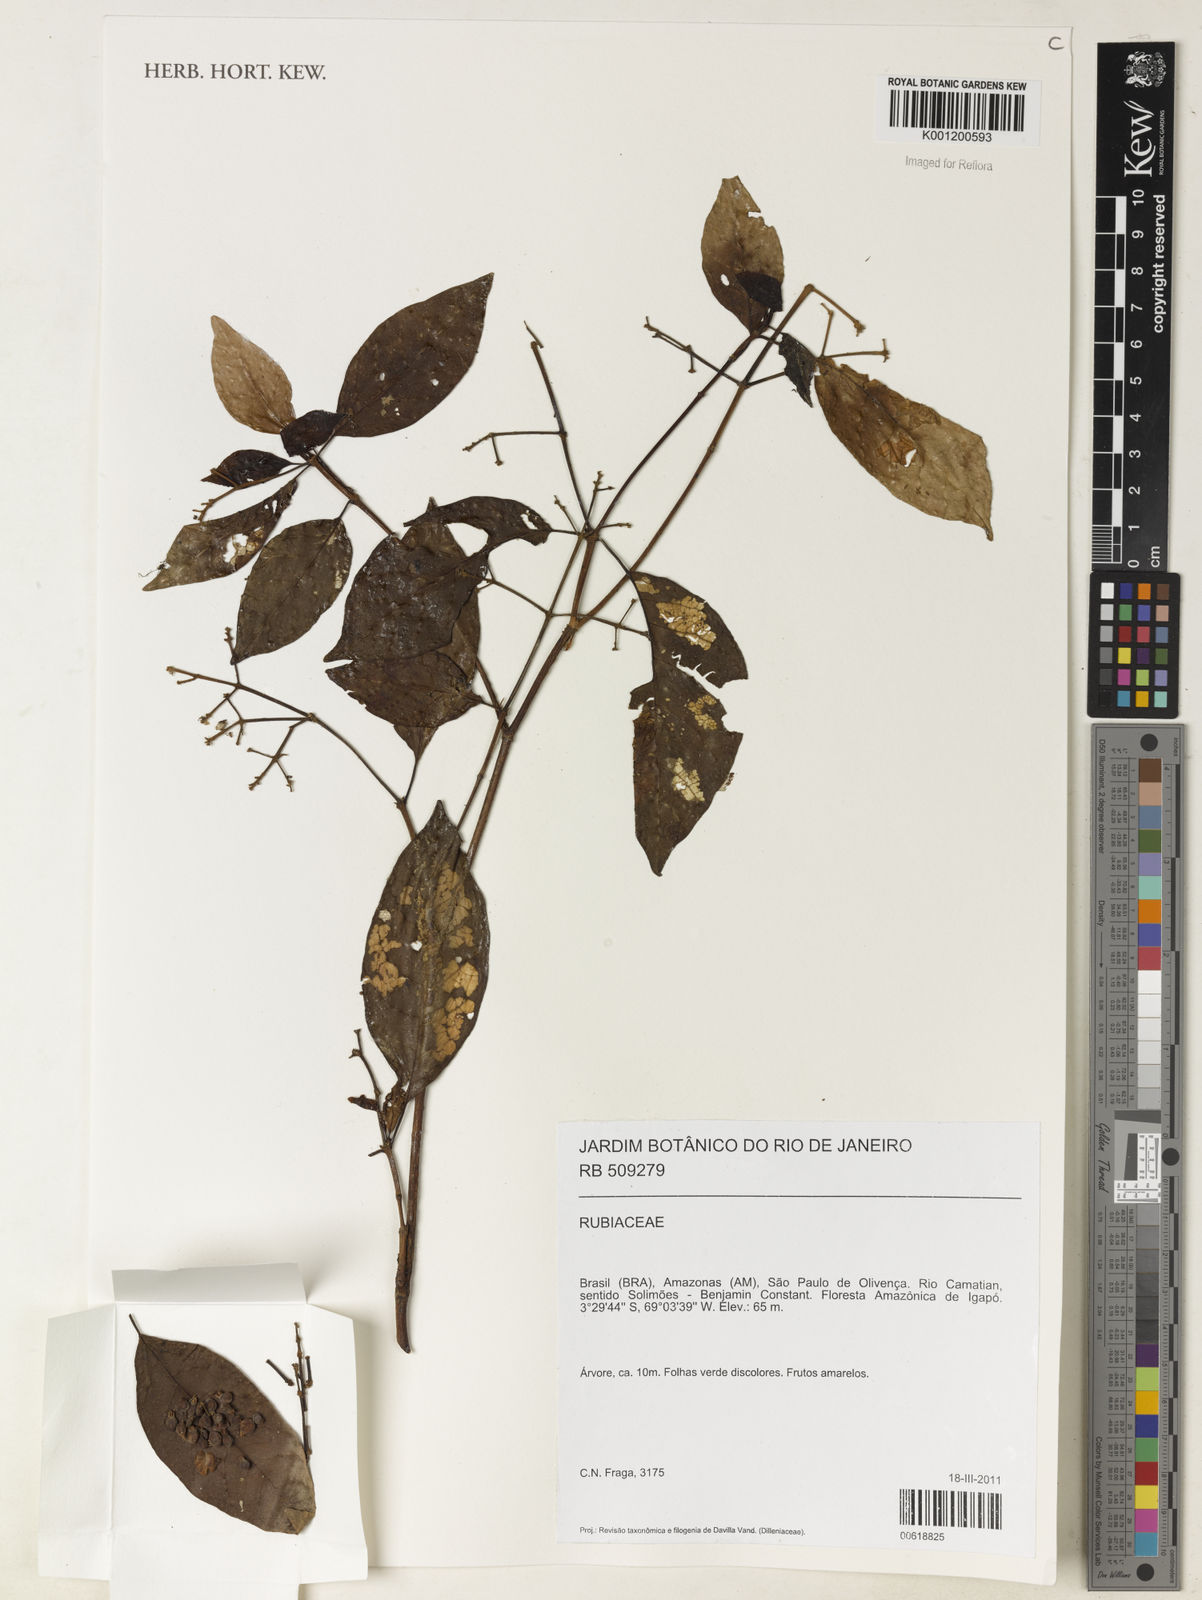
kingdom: Plantae
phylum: Tracheophyta
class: Magnoliopsida
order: Gentianales
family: Rubiaceae
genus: Psychotria
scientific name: Psychotria
